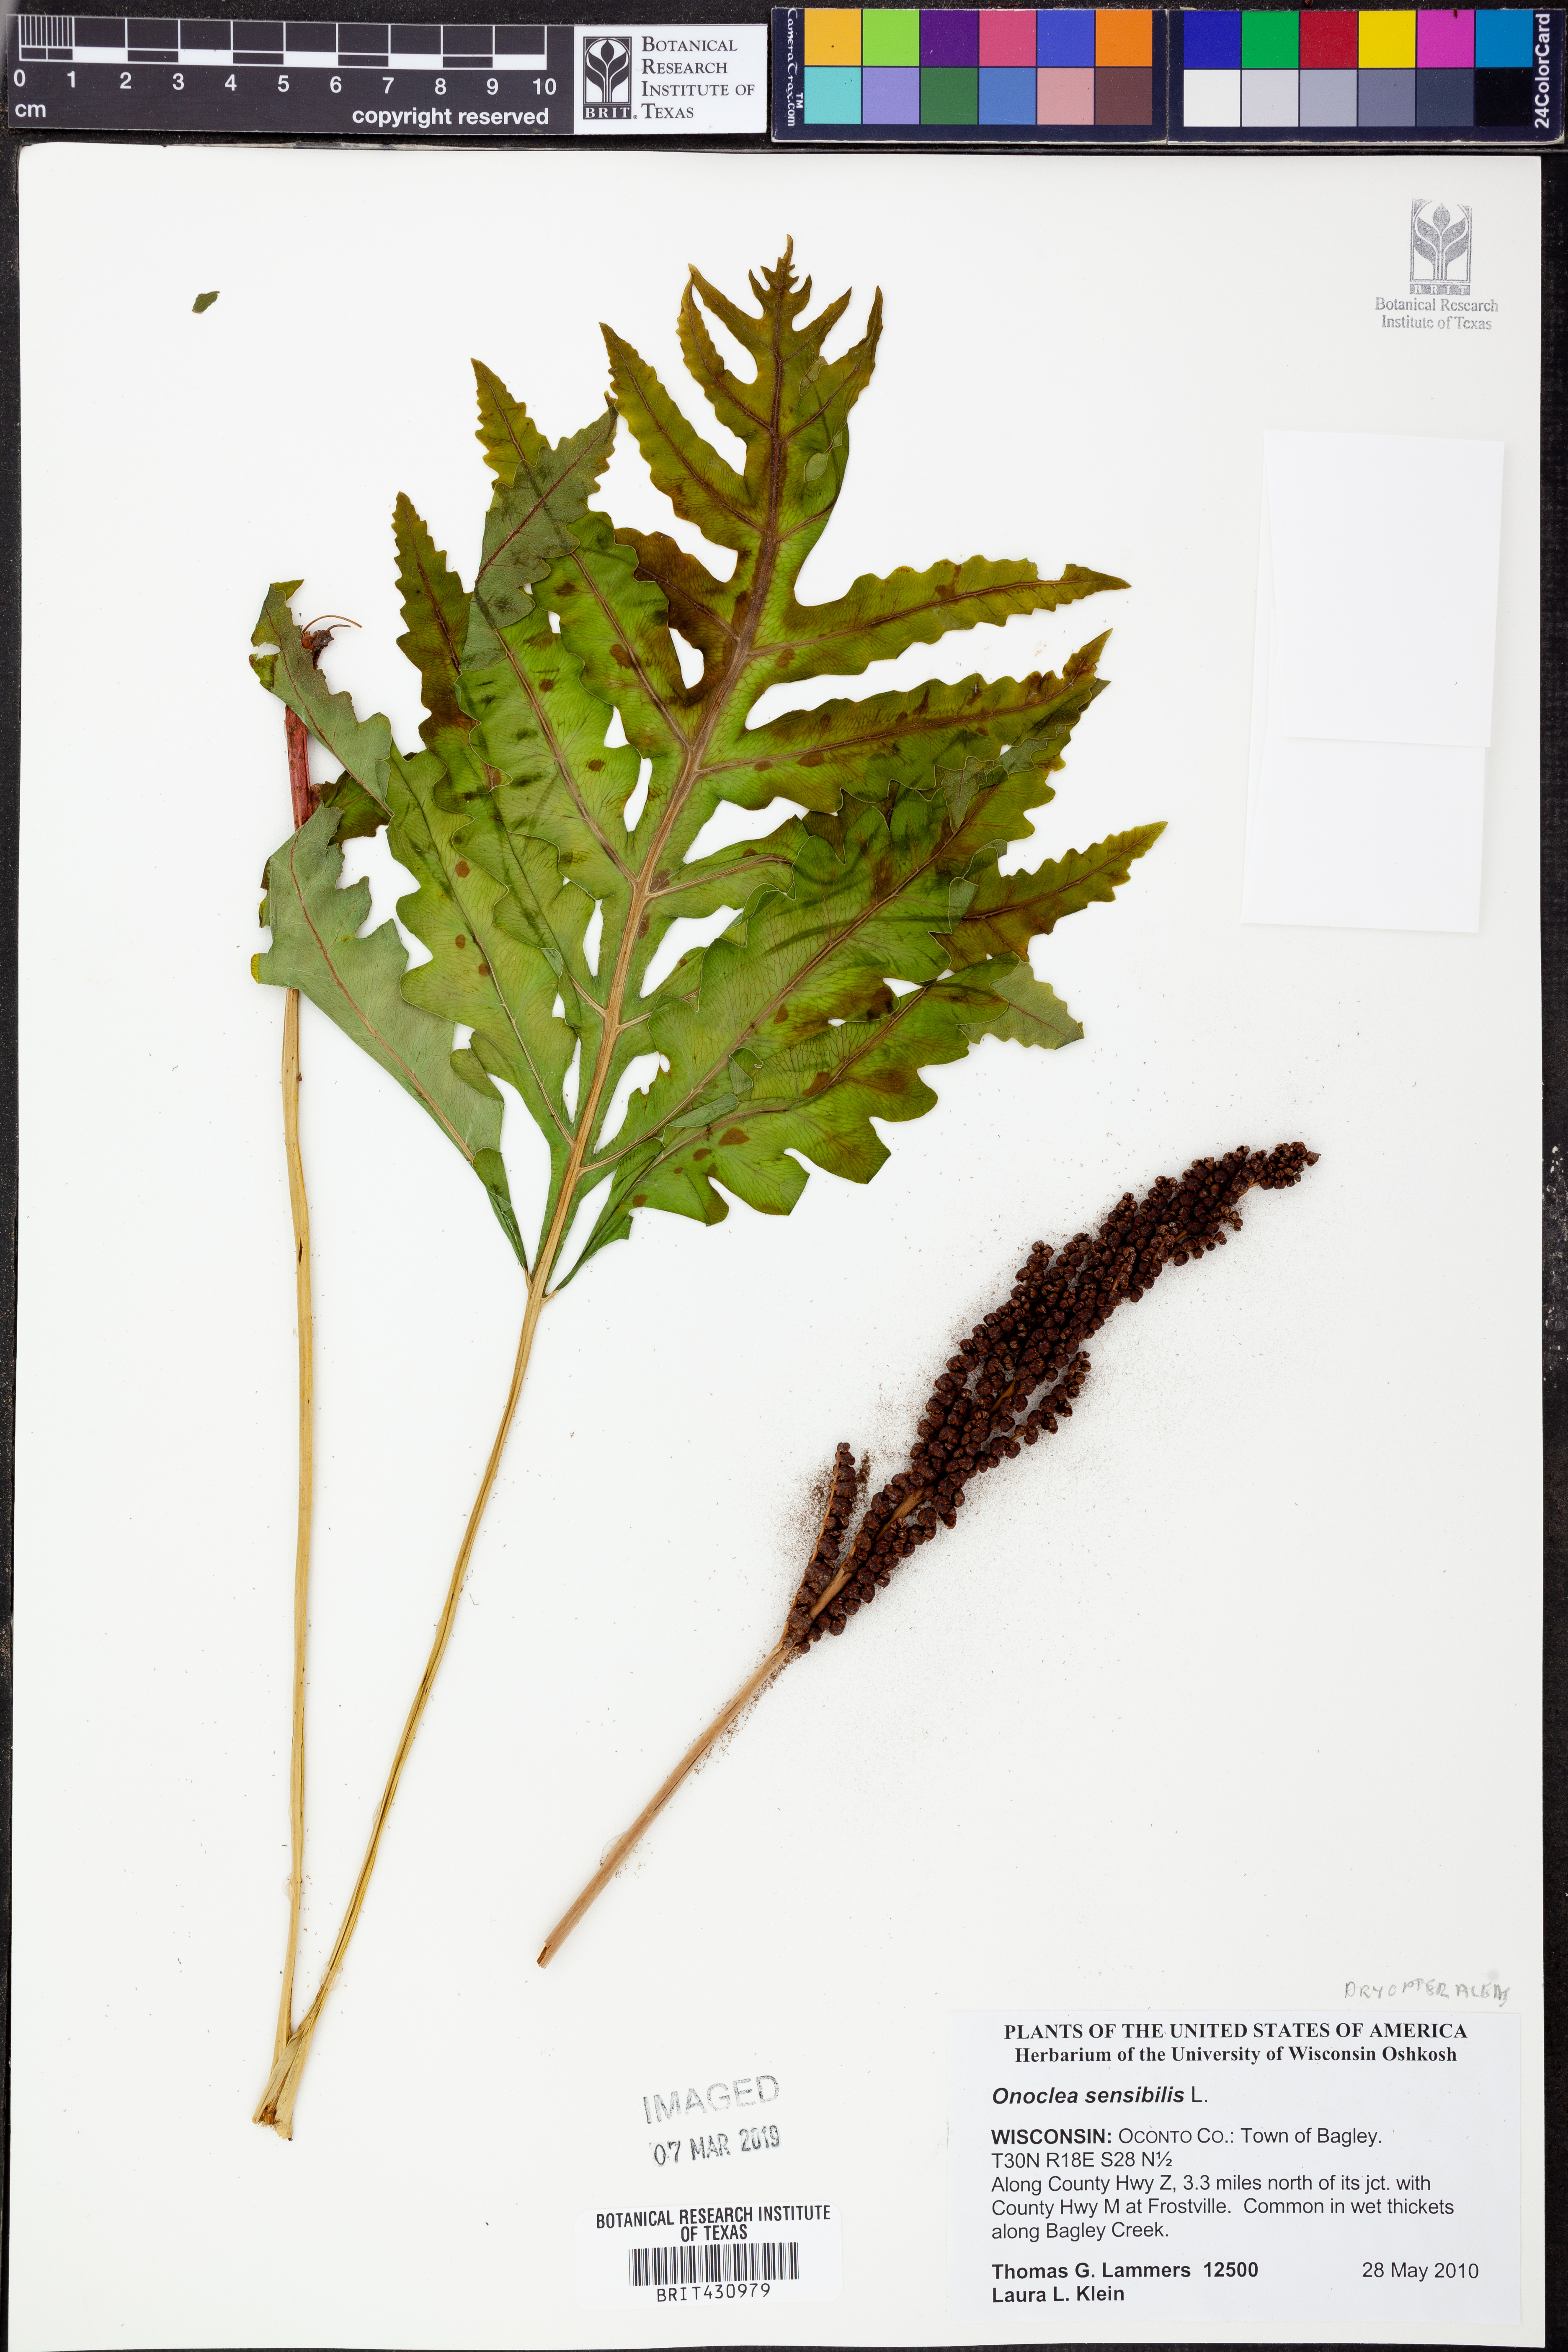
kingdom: Plantae
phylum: Tracheophyta
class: Polypodiopsida
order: Polypodiales
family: Onocleaceae
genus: Onoclea
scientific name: Onoclea sensibilis
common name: Sensitive fern
